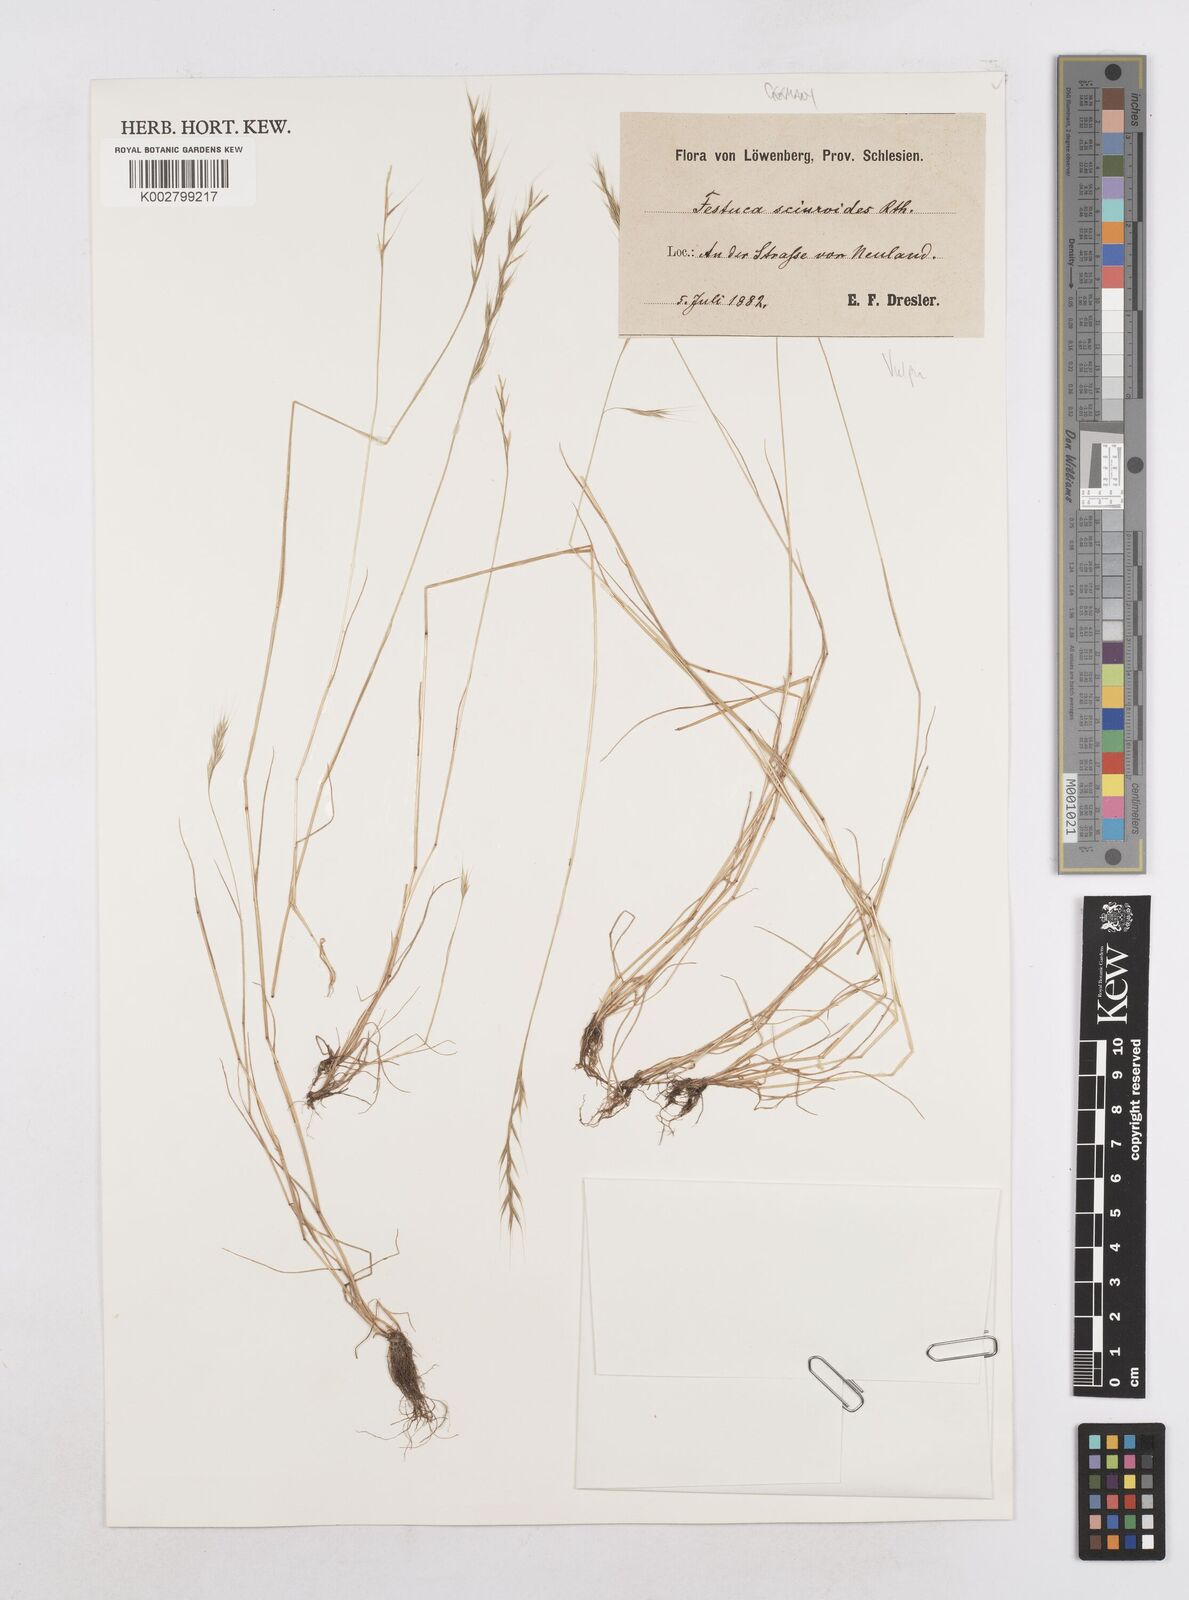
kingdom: Plantae
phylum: Tracheophyta
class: Liliopsida
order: Poales
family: Poaceae
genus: Festuca
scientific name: Festuca bromoides
